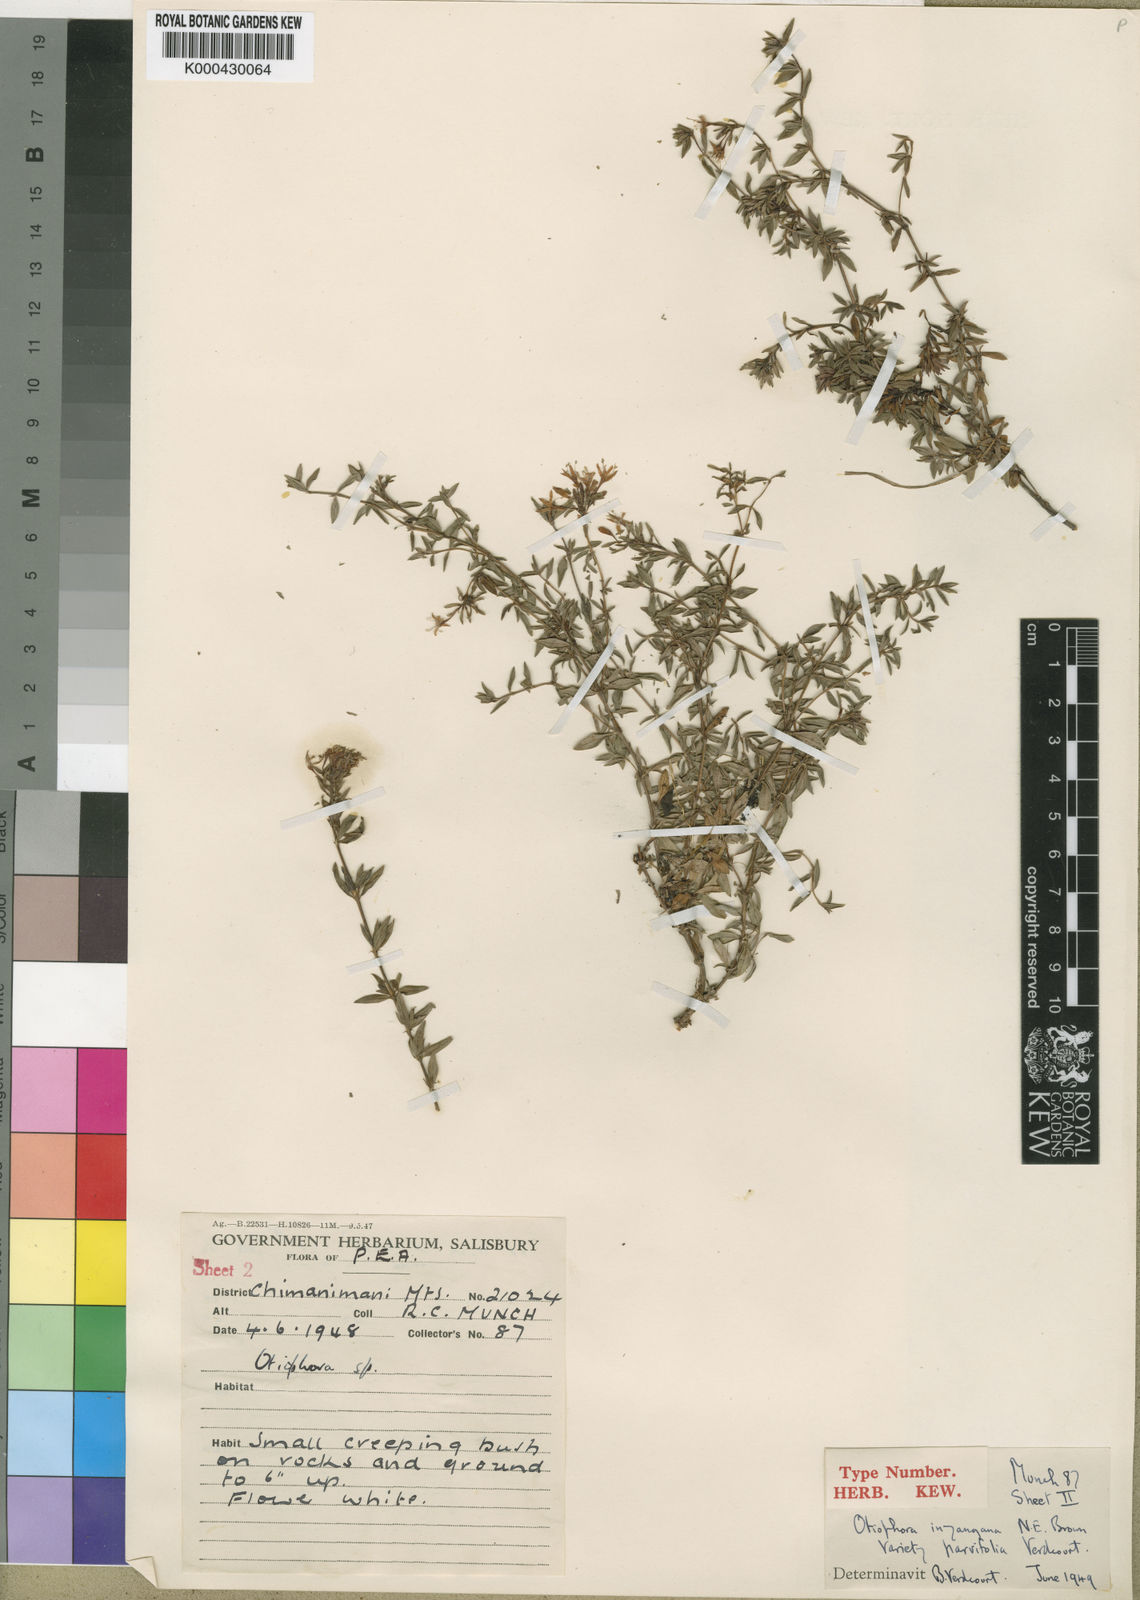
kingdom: Plantae
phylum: Tracheophyta
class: Magnoliopsida
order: Gentianales
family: Rubiaceae
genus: Otiophora
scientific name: Otiophora inyangana
